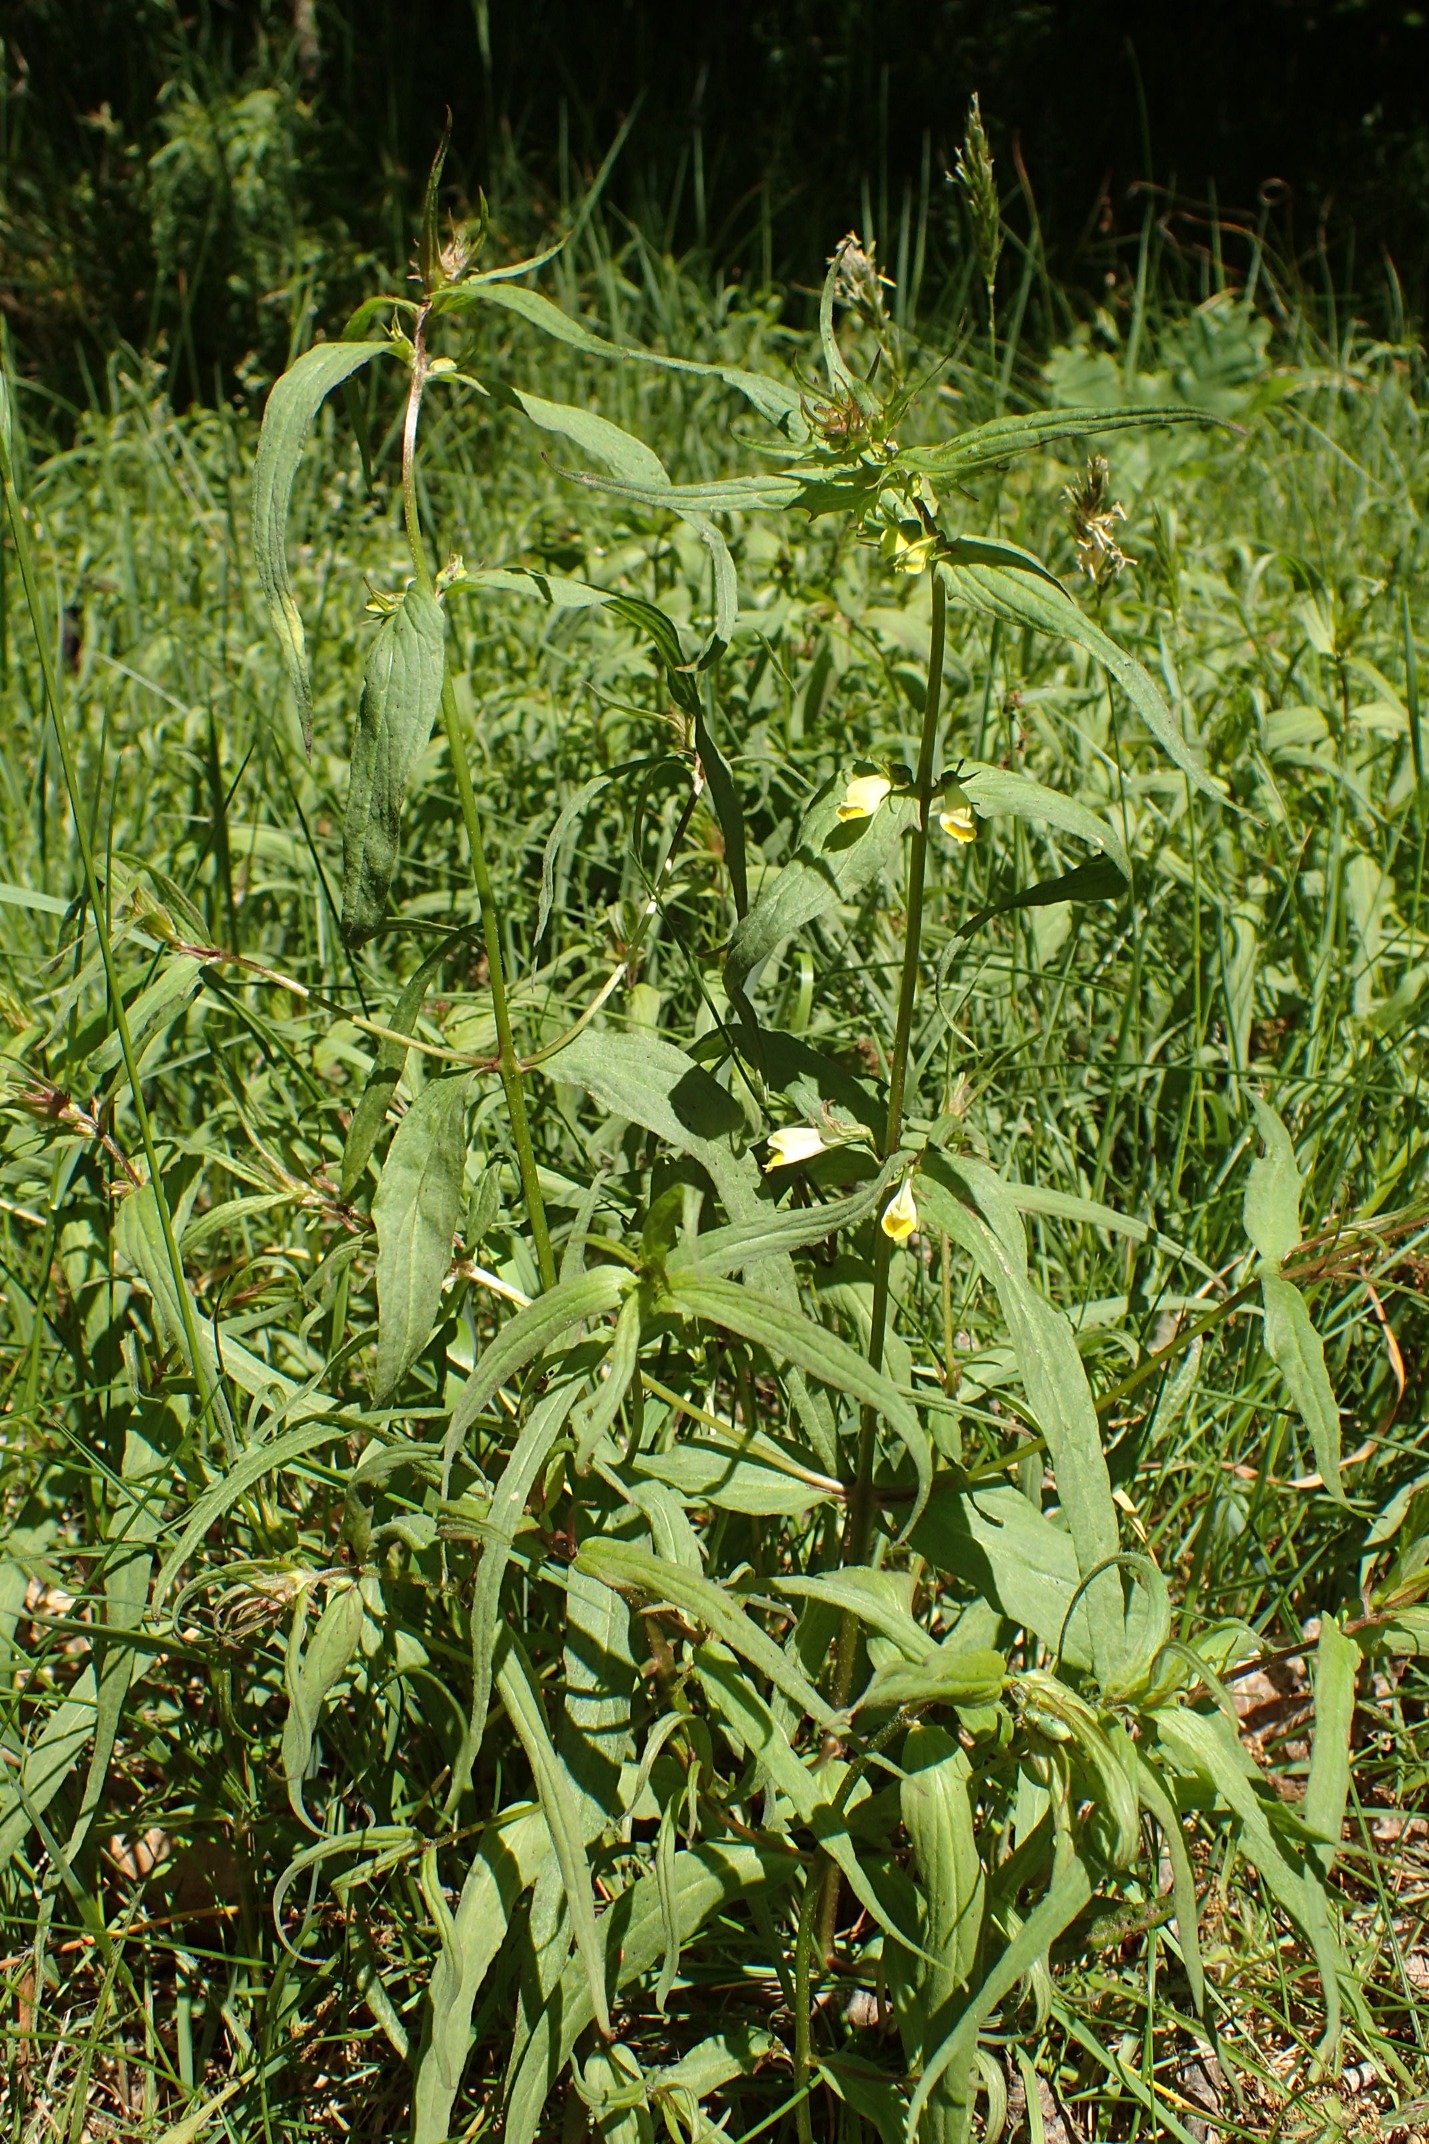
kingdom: Plantae
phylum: Tracheophyta
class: Magnoliopsida
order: Lamiales
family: Orobanchaceae
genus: Melampyrum
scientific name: Melampyrum pratense
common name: Almindelig kohvede
